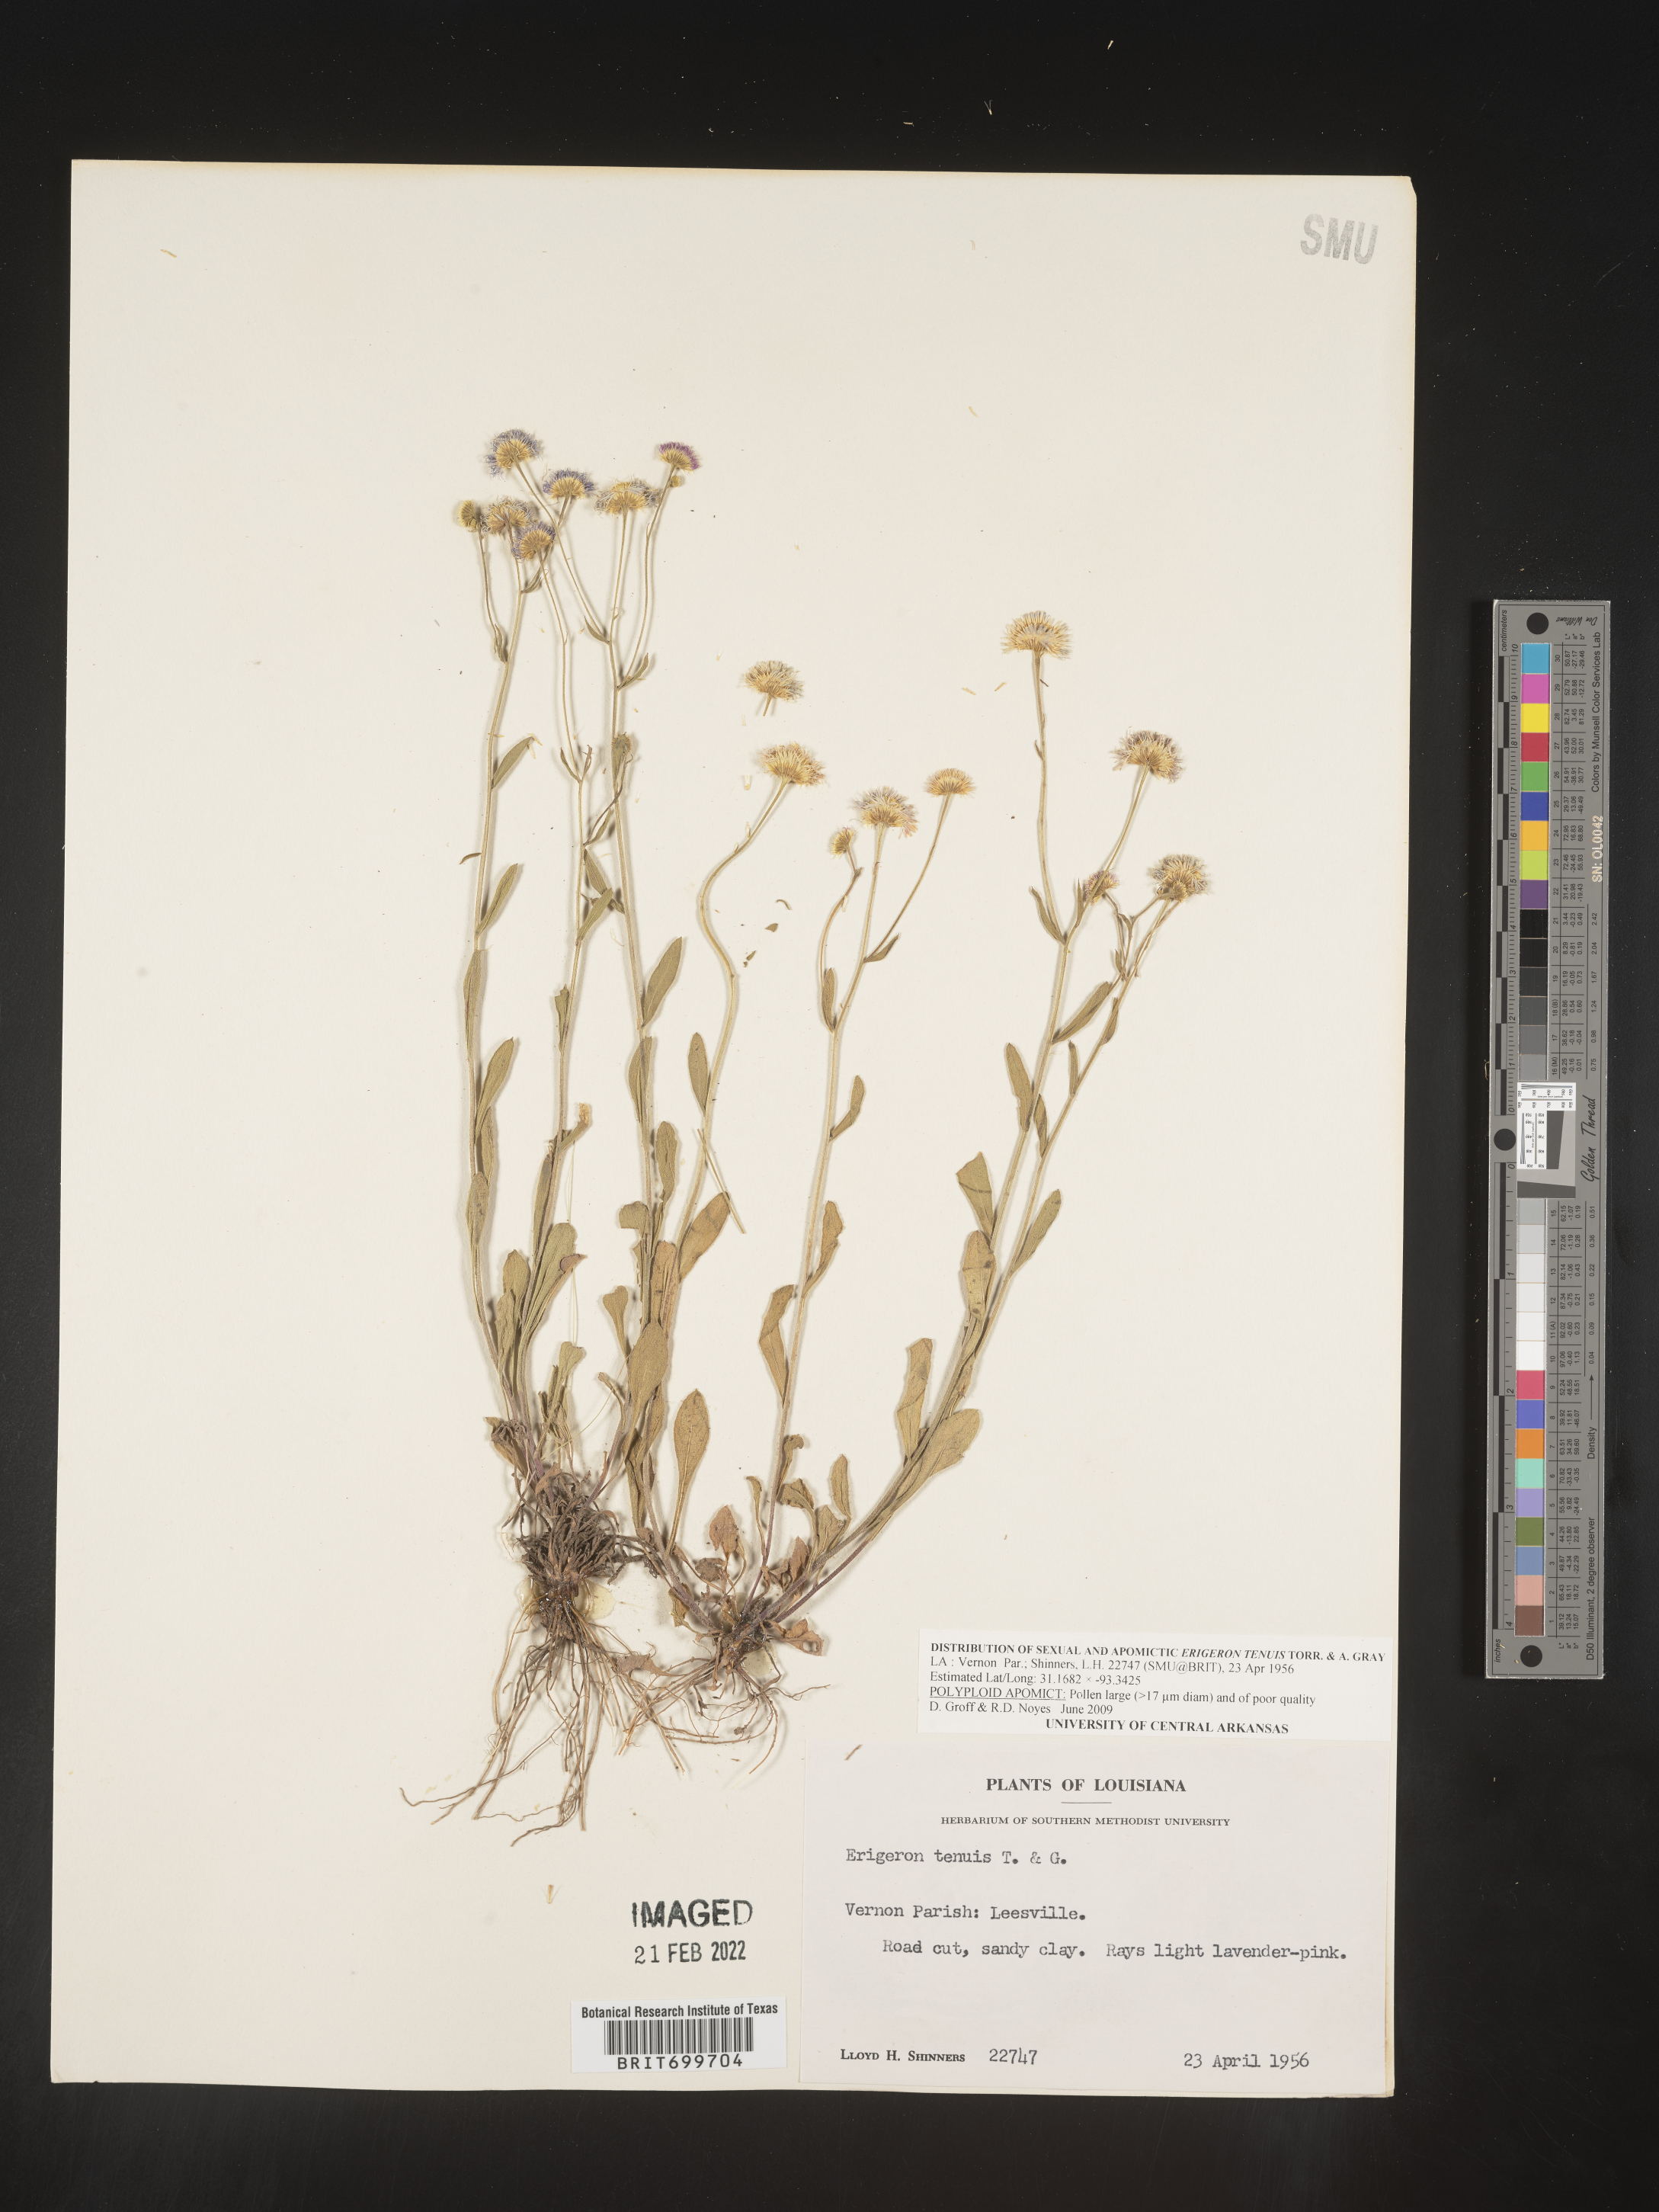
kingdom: Plantae
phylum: Tracheophyta
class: Magnoliopsida
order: Asterales
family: Asteraceae
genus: Erigeron
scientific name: Erigeron tenuis
